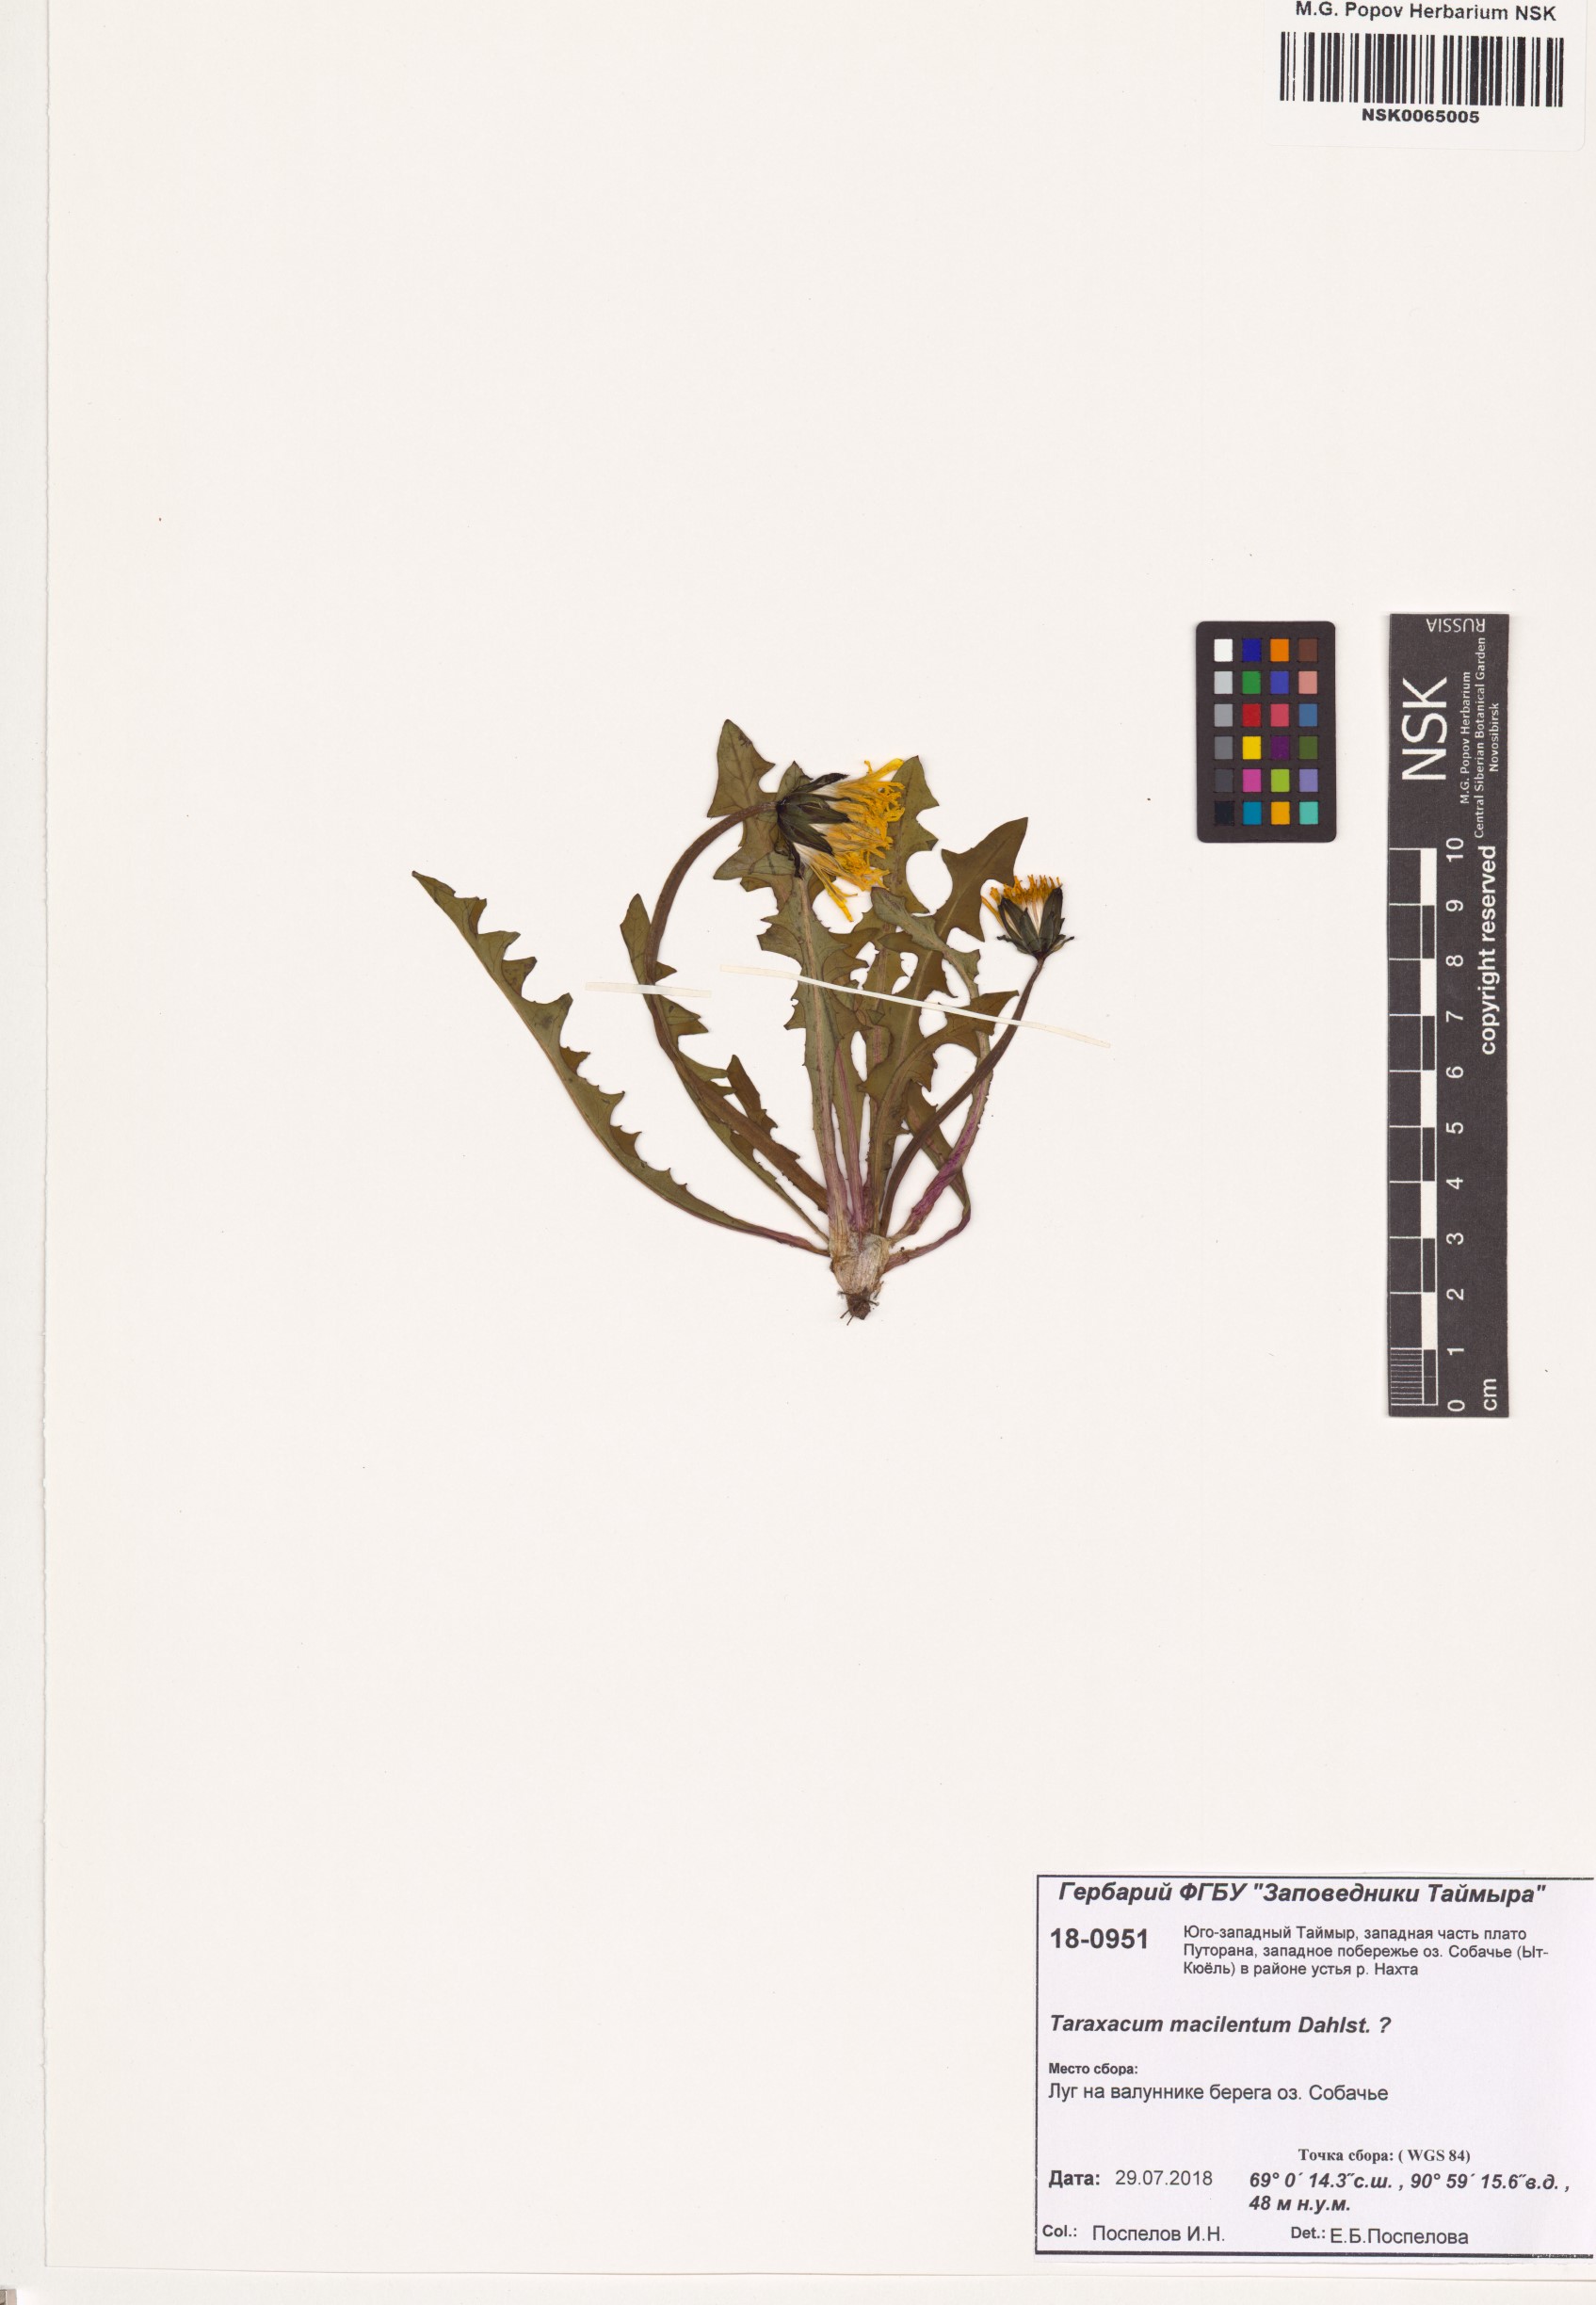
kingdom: Plantae
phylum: Tracheophyta
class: Magnoliopsida
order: Asterales
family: Asteraceae
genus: Taraxacum
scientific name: Taraxacum macilentum
